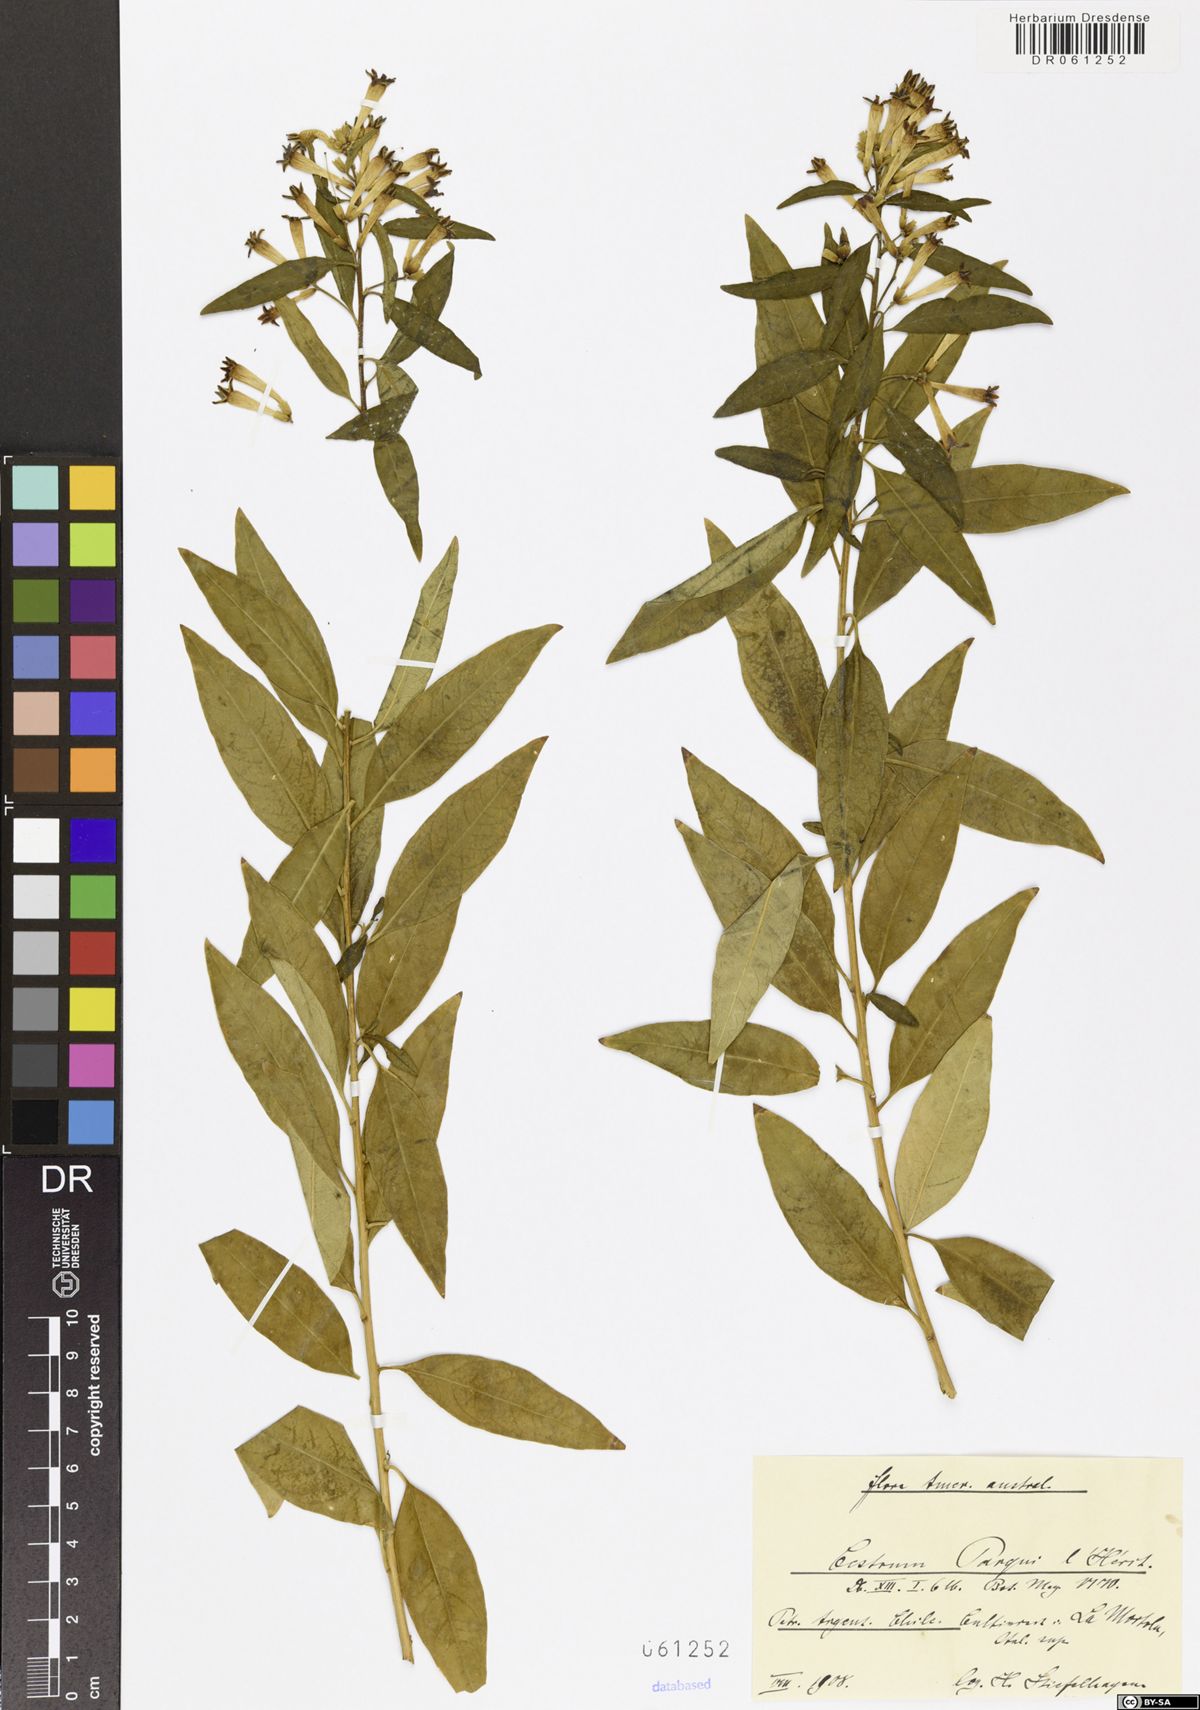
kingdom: Plantae
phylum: Tracheophyta
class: Magnoliopsida
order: Solanales
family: Solanaceae
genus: Cestrum
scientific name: Cestrum thyrsoideum
